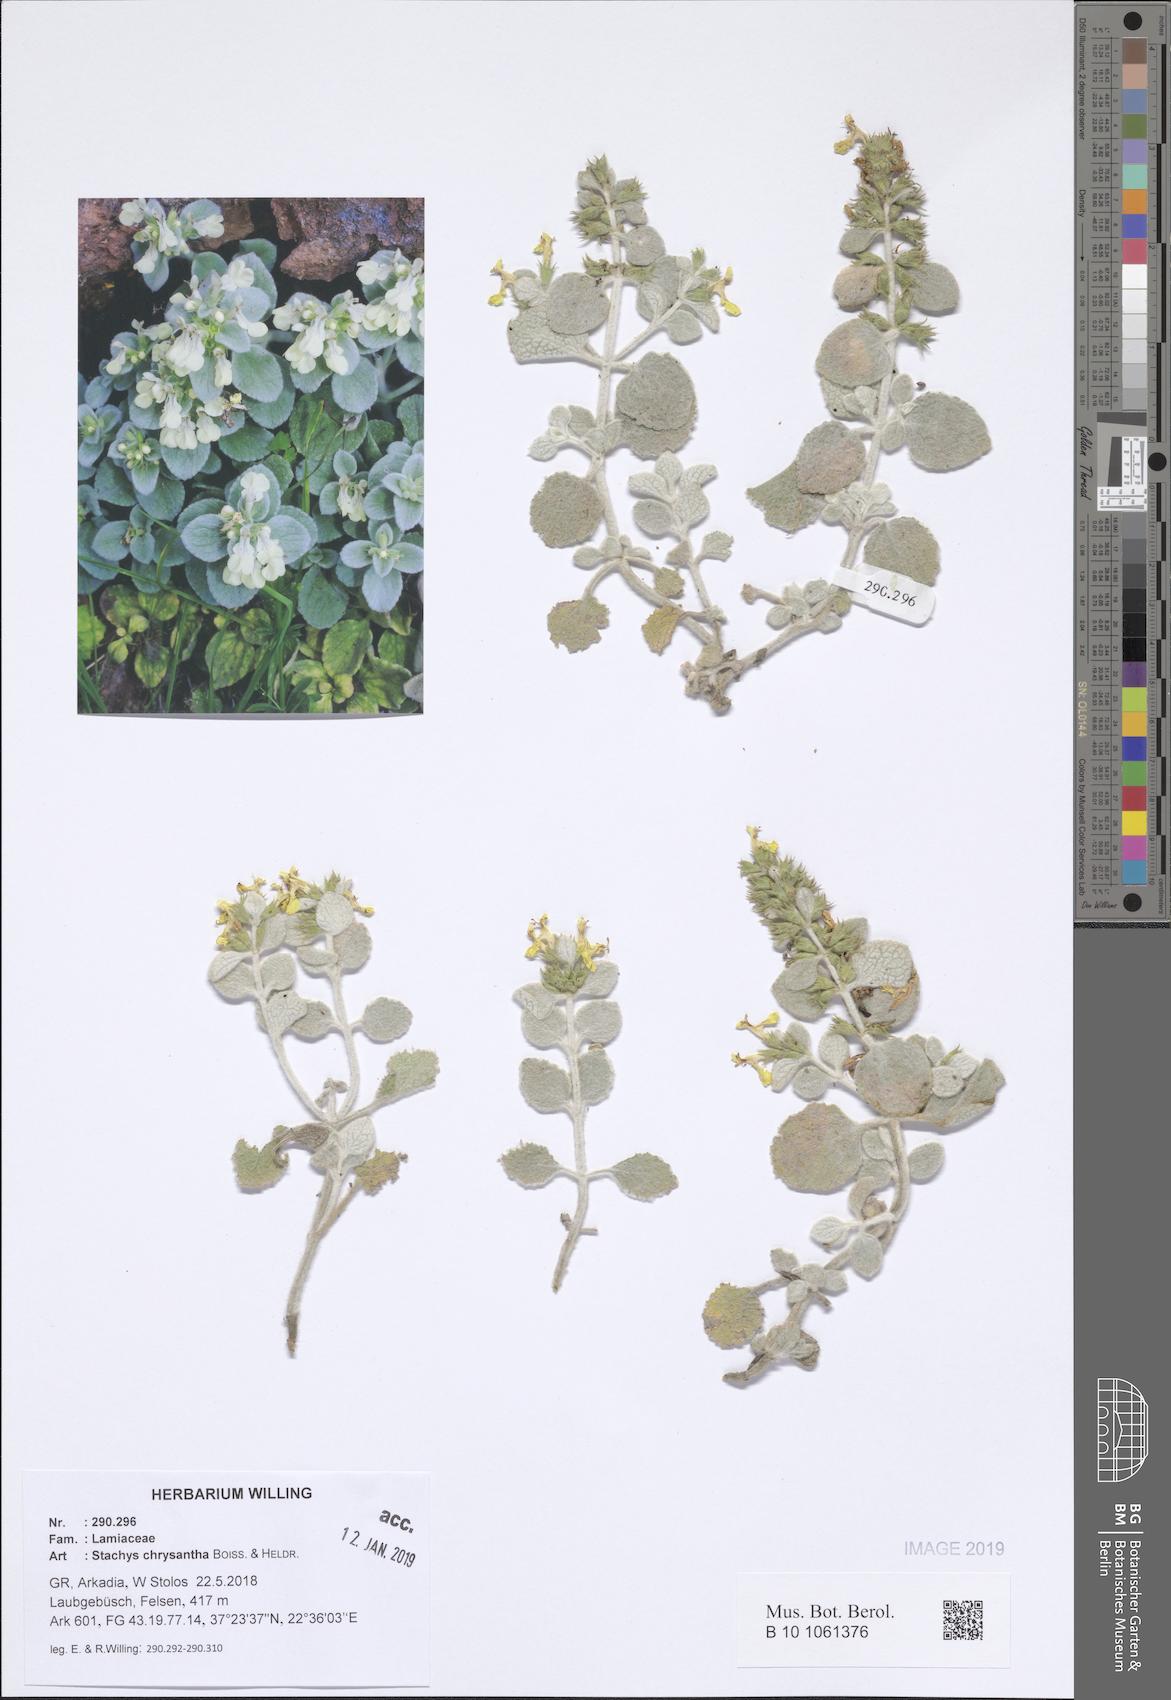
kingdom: Plantae
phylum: Tracheophyta
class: Magnoliopsida
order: Lamiales
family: Lamiaceae
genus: Stachys
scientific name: Stachys chrysantha
